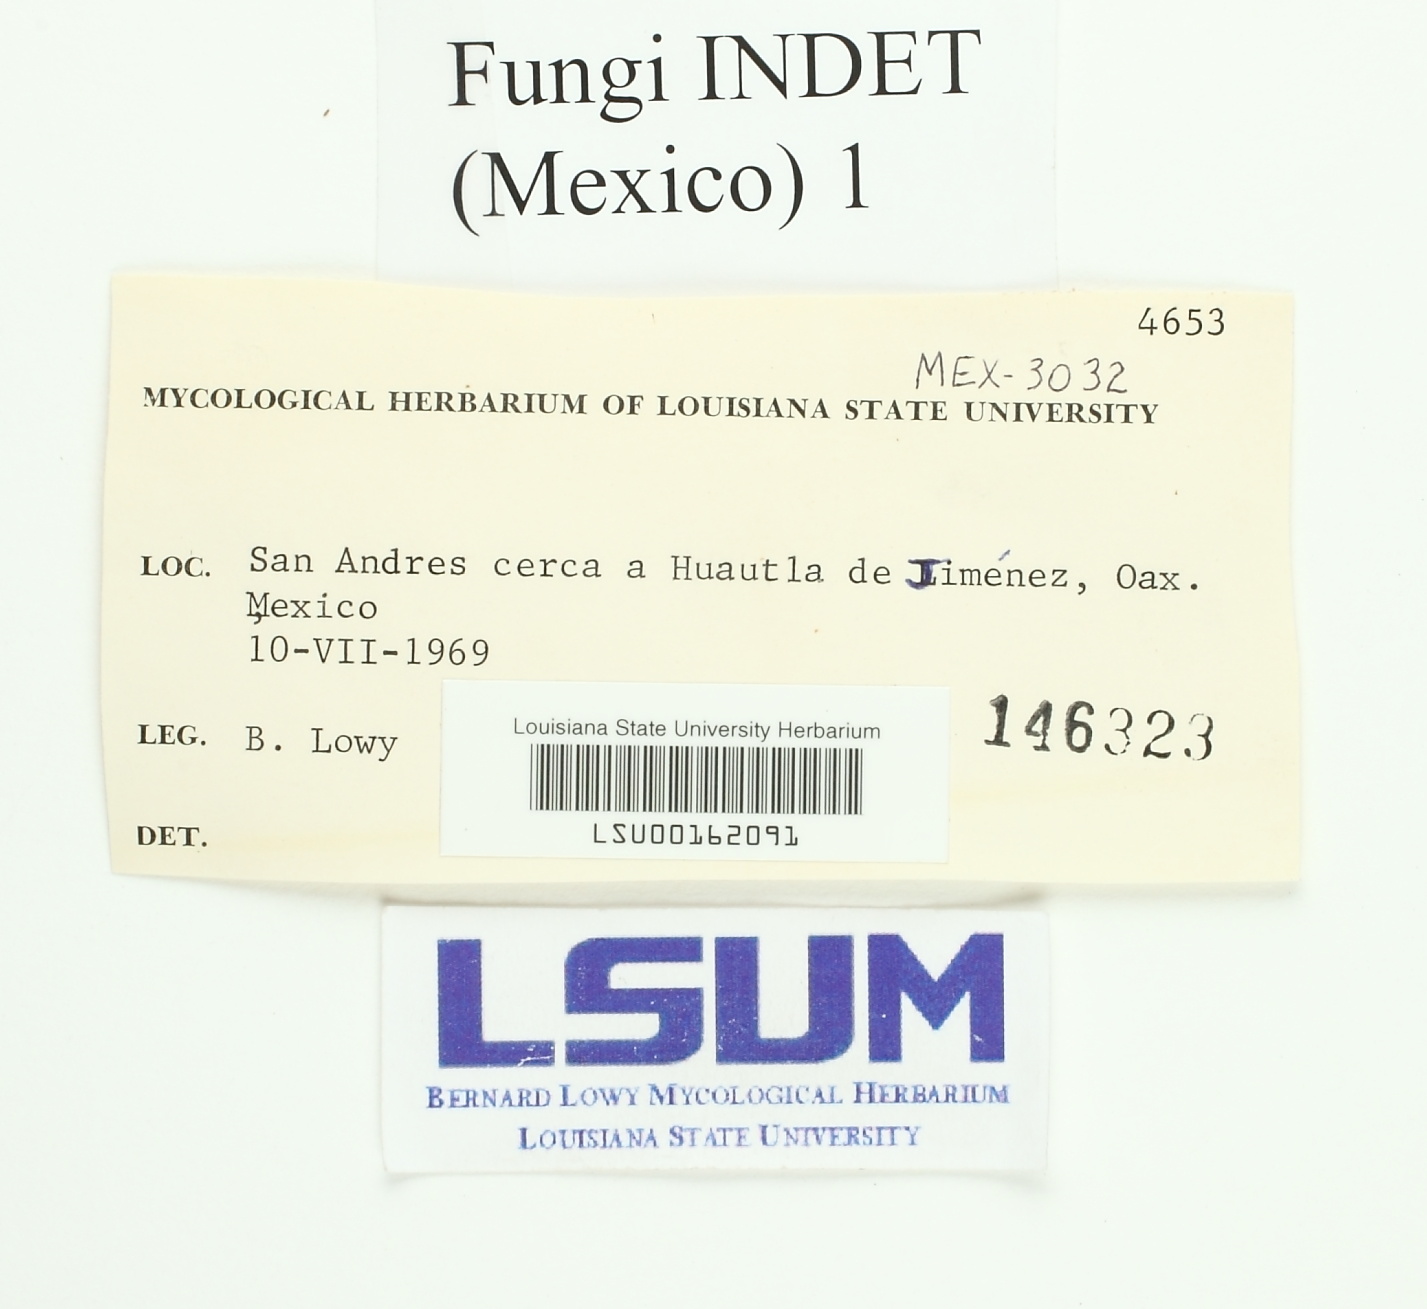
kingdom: Fungi
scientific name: Fungi
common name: Fungi
